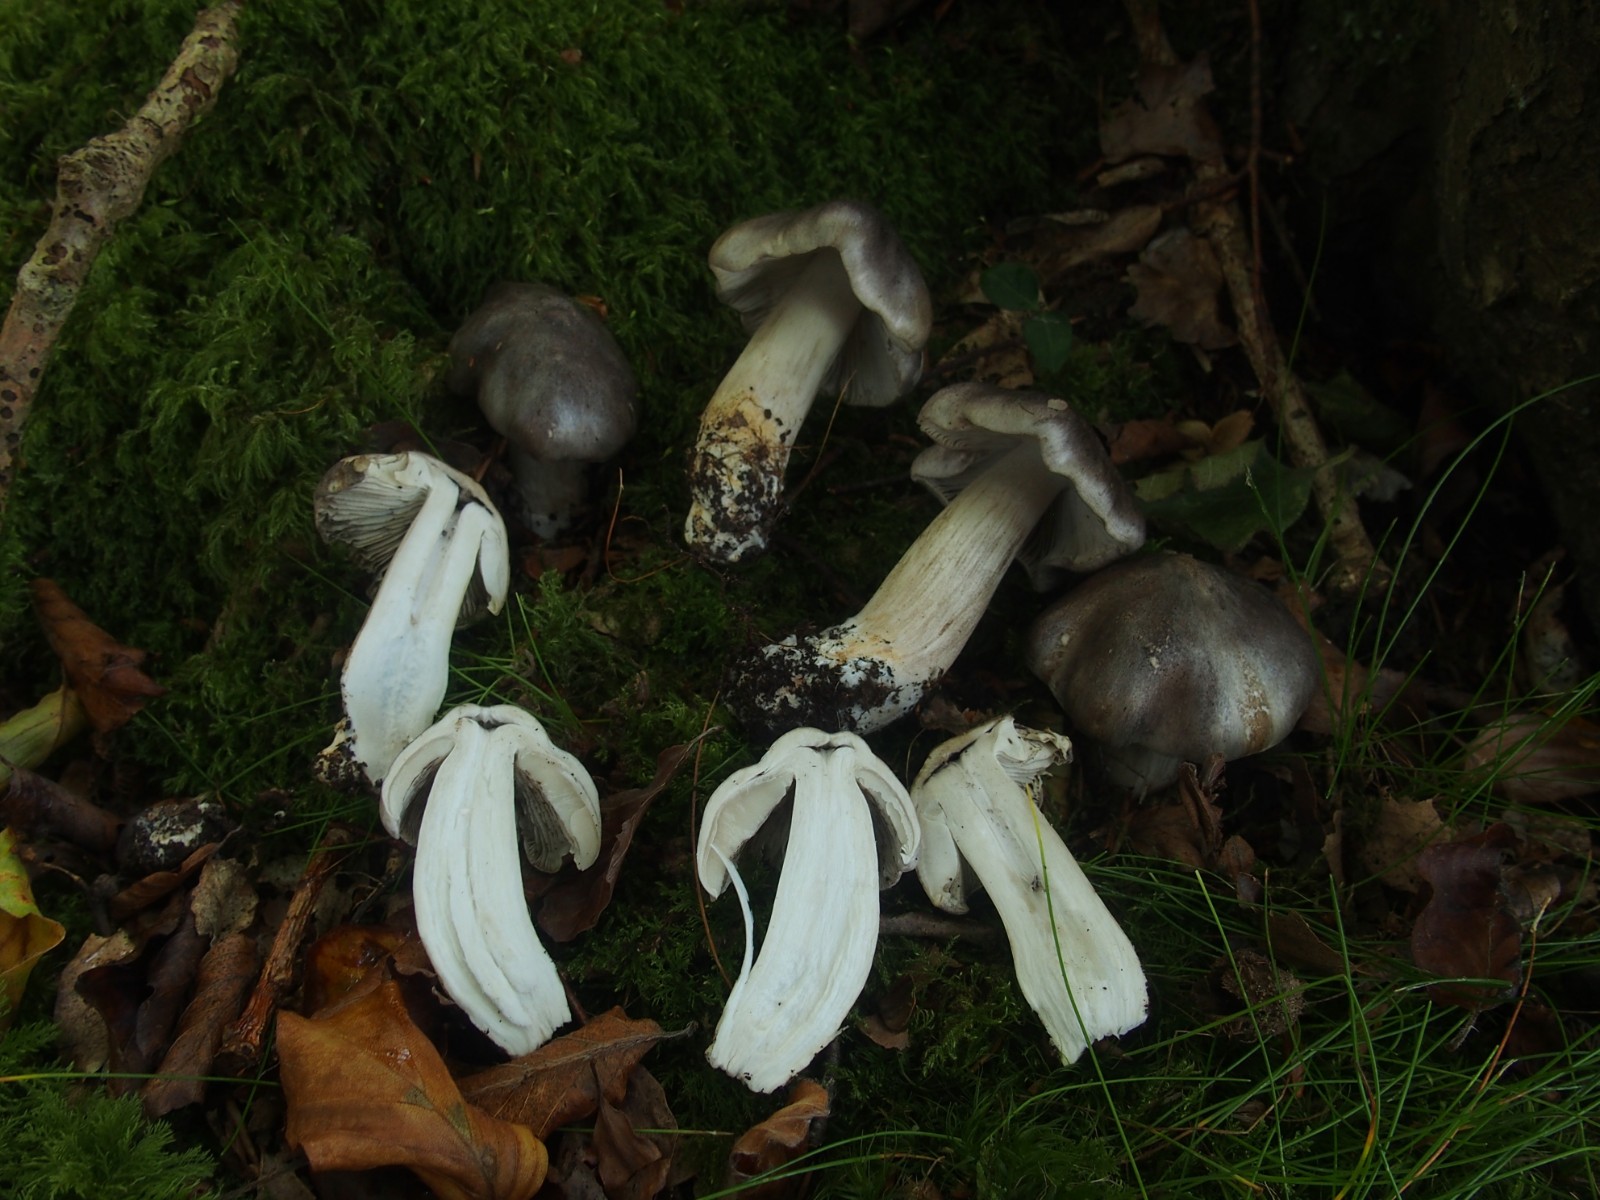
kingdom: Fungi
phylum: Basidiomycota
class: Agaricomycetes
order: Agaricales
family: Tricholomataceae
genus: Tricholoma
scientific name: Tricholoma sciodes
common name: stribet ridderhat
